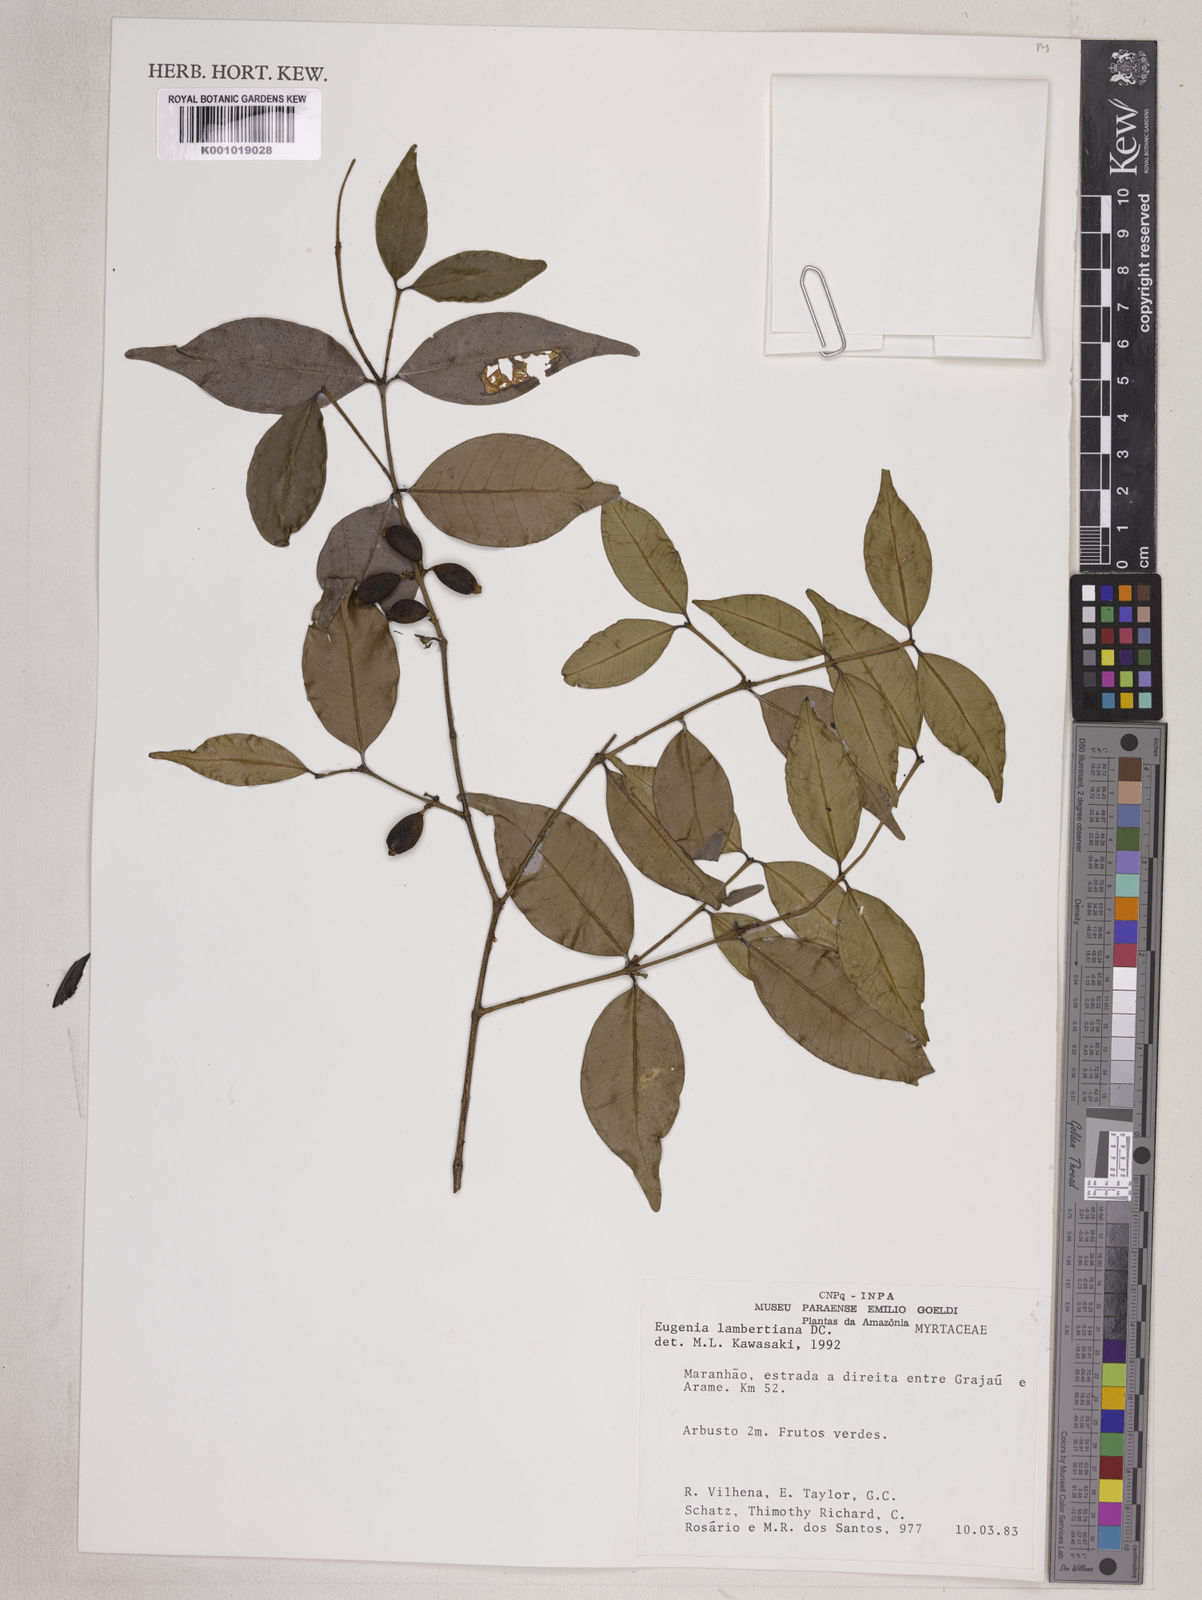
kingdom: Plantae
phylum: Tracheophyta
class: Magnoliopsida
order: Myrtales
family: Myrtaceae
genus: Eugenia
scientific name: Eugenia lambertiana
